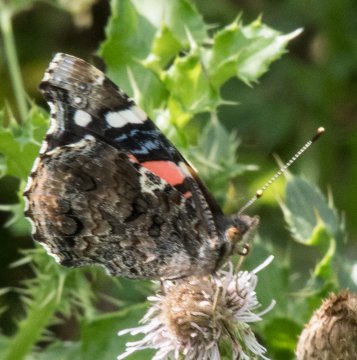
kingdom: Animalia
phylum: Arthropoda
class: Insecta
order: Lepidoptera
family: Nymphalidae
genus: Vanessa
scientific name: Vanessa atalanta
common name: Red Admiral
